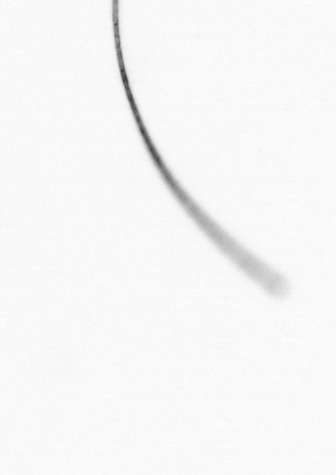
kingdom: Chromista
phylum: Ochrophyta
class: Bacillariophyceae
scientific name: Bacillariophyceae
